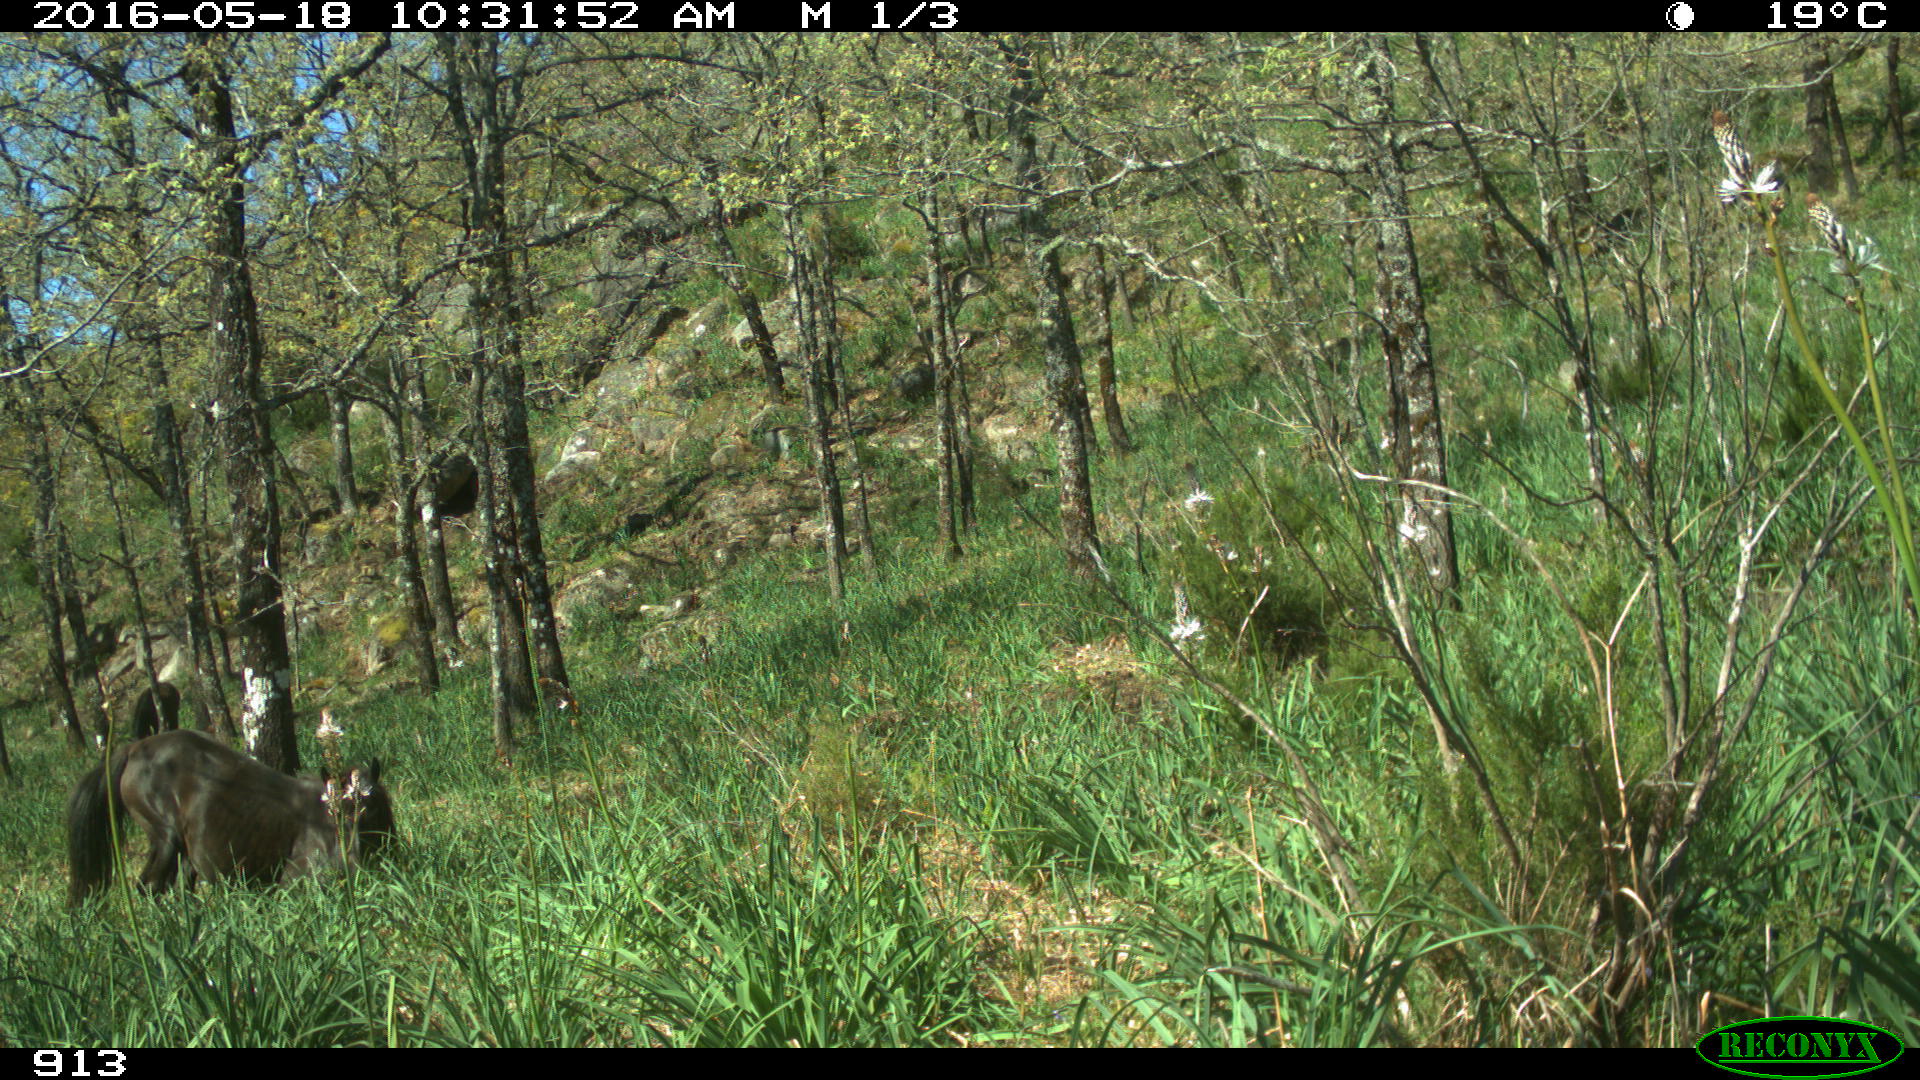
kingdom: Animalia
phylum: Chordata
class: Mammalia
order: Perissodactyla
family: Equidae
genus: Equus
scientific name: Equus caballus
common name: Horse
